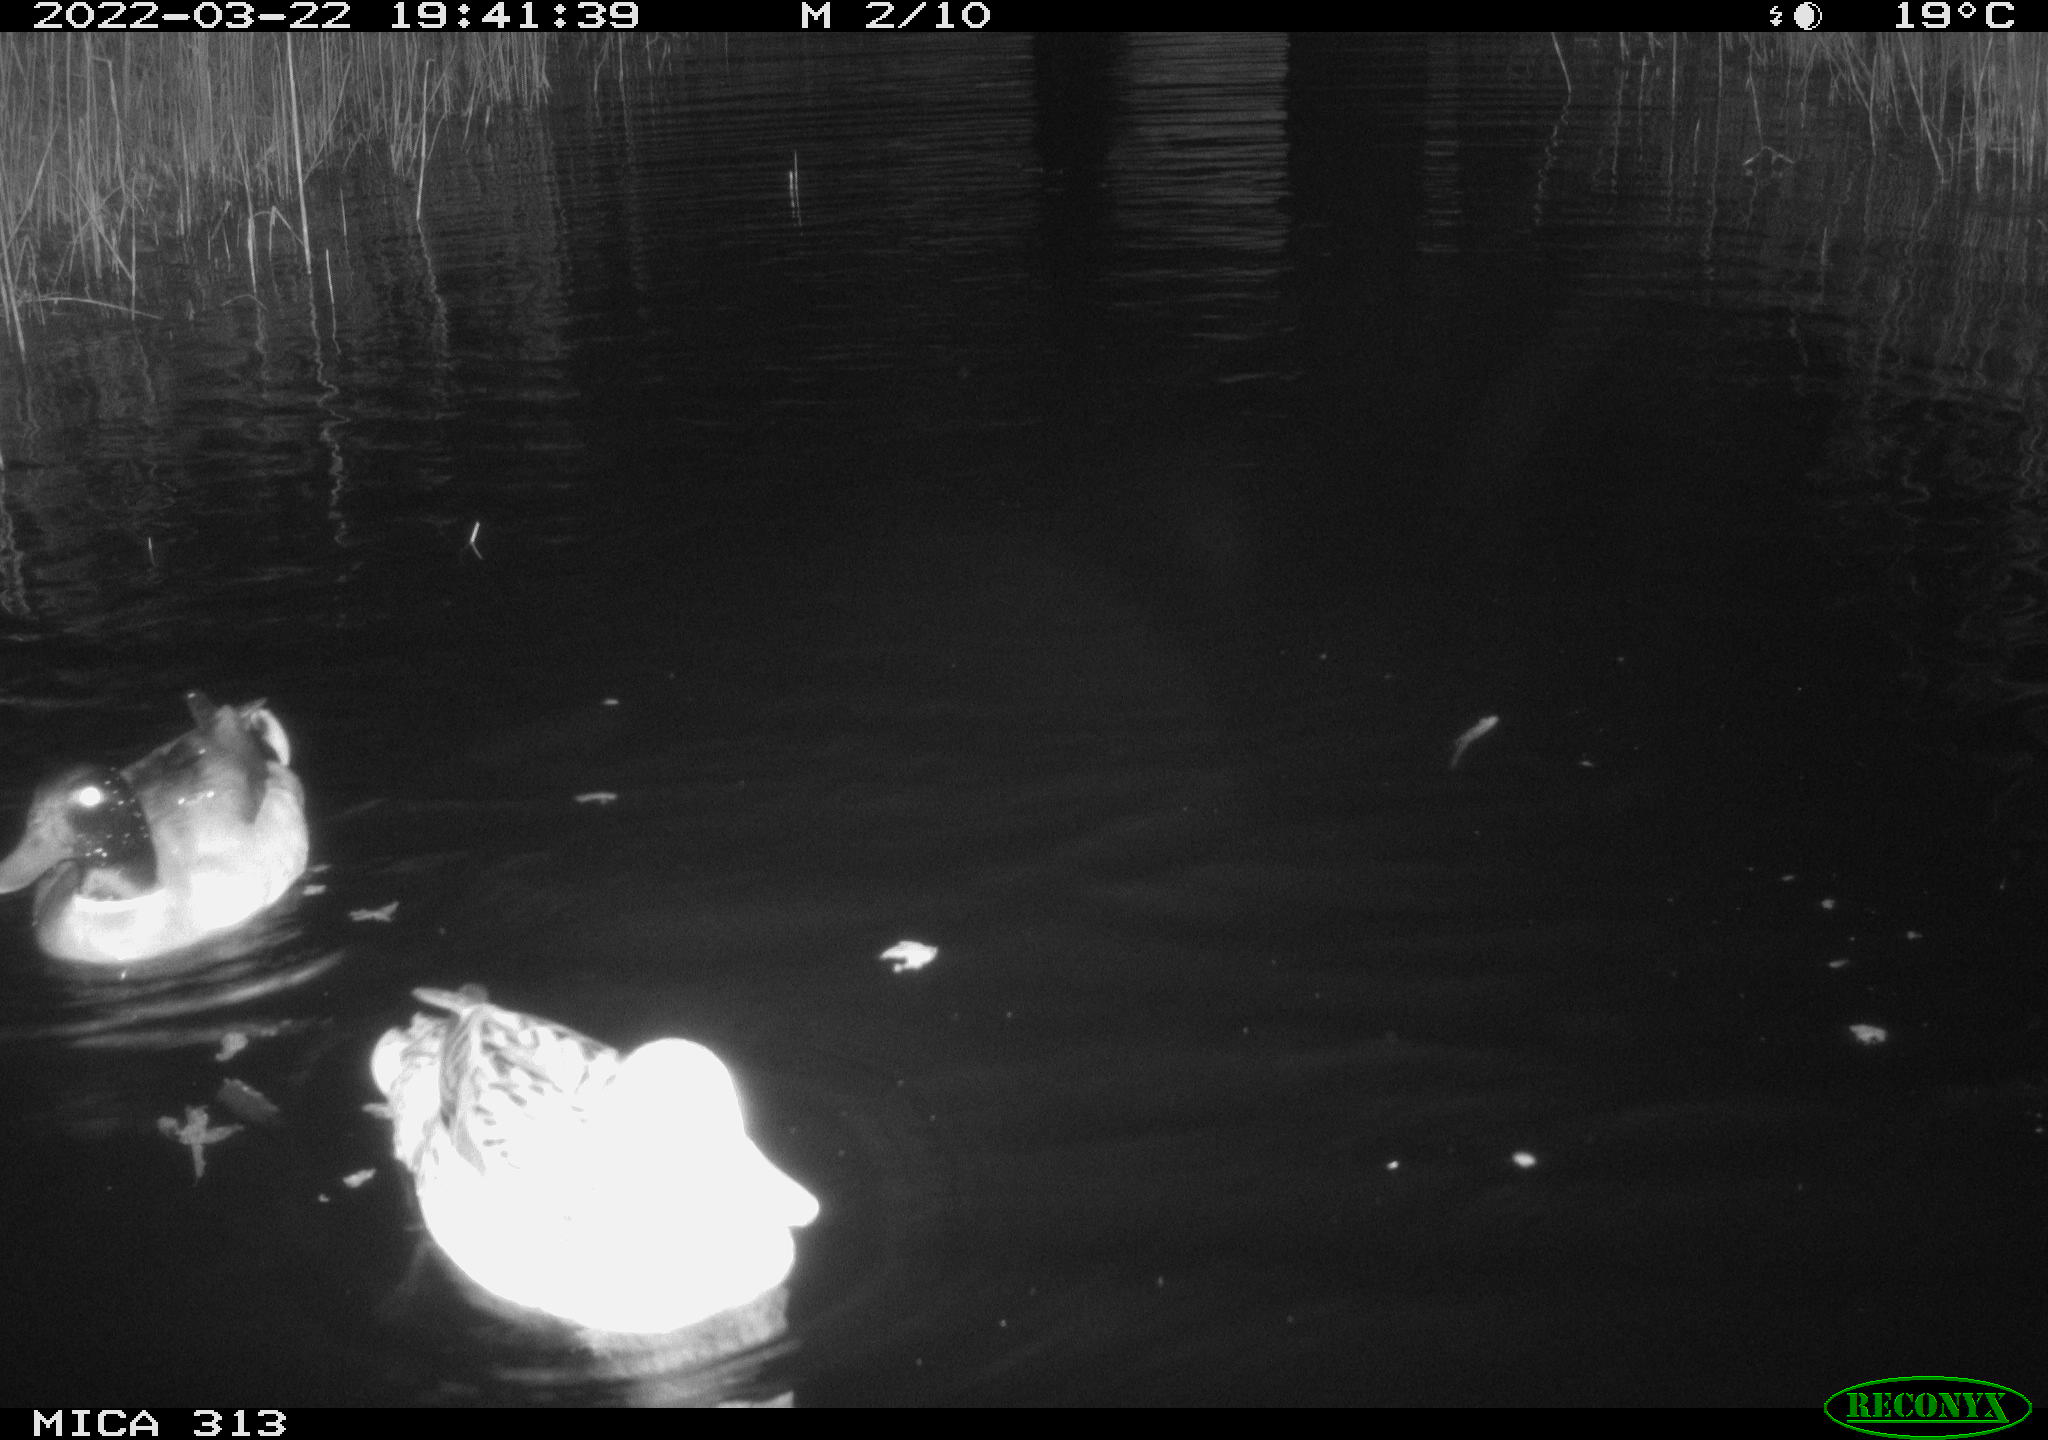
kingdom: Animalia
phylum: Chordata
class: Aves
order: Anseriformes
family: Anatidae
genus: Anas
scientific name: Anas platyrhynchos
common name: Mallard
